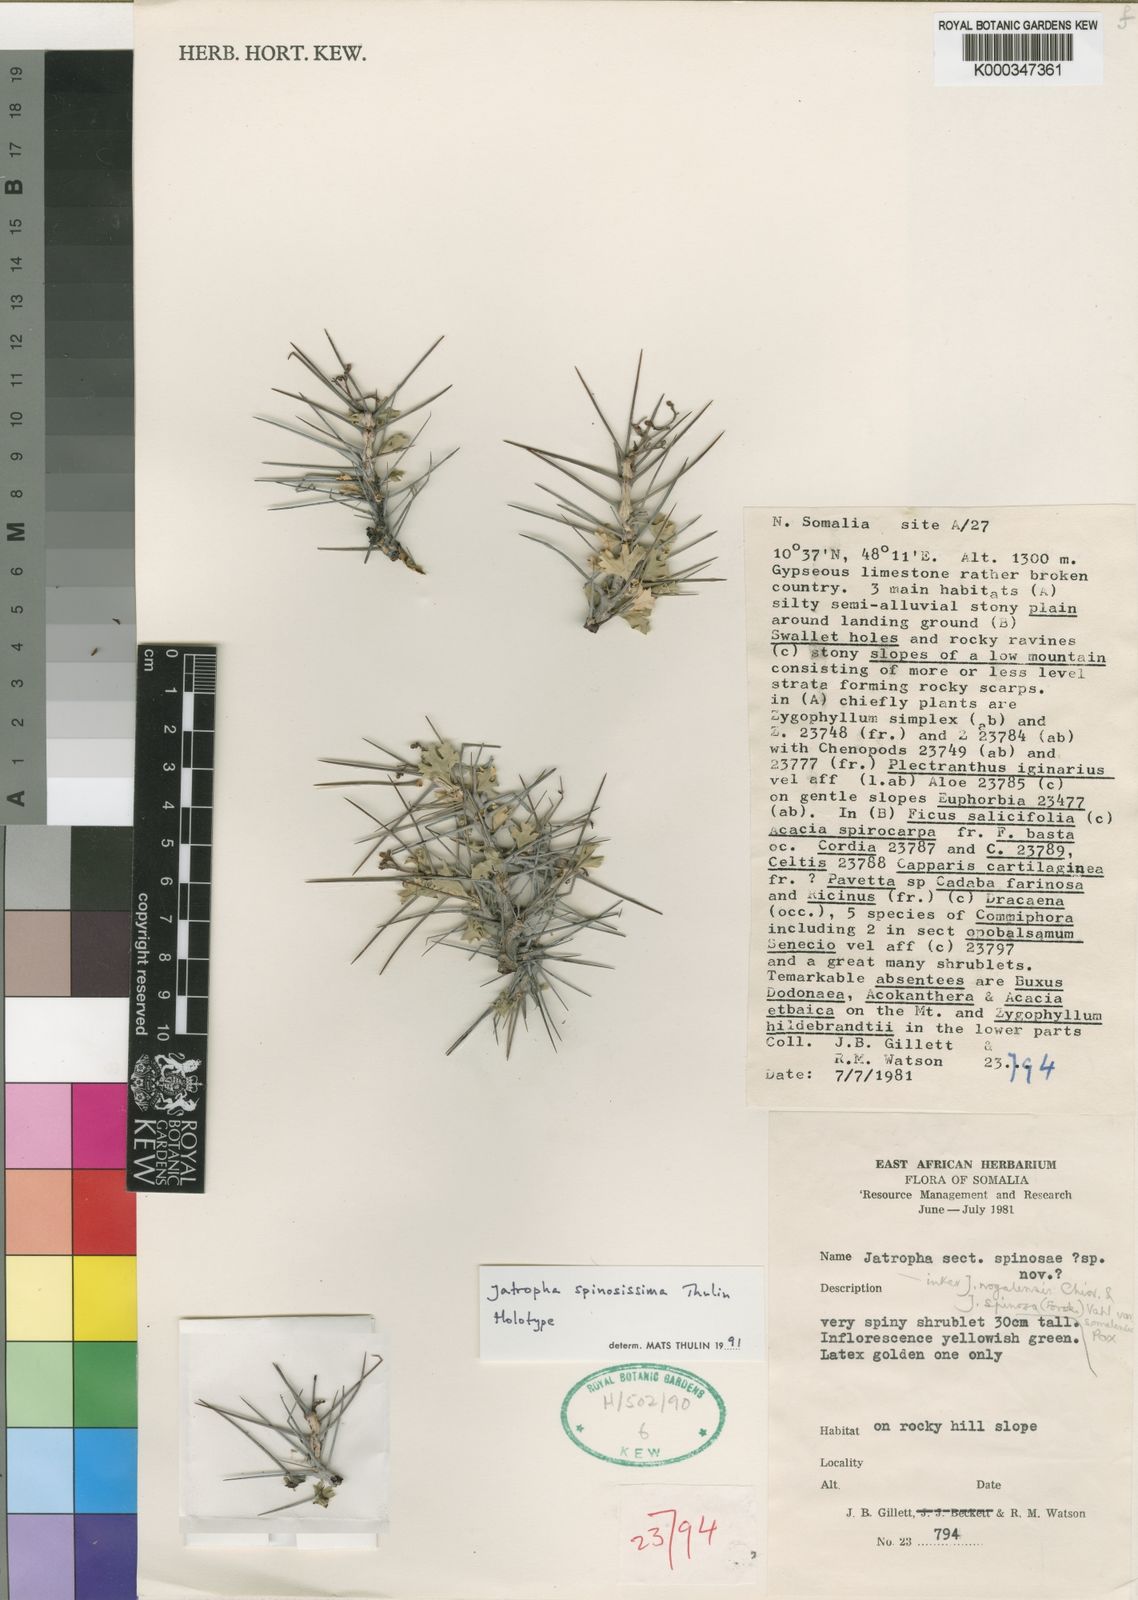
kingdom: Plantae
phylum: Tracheophyta
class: Magnoliopsida
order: Malpighiales
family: Euphorbiaceae
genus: Jatropha
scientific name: Jatropha spinosissima
